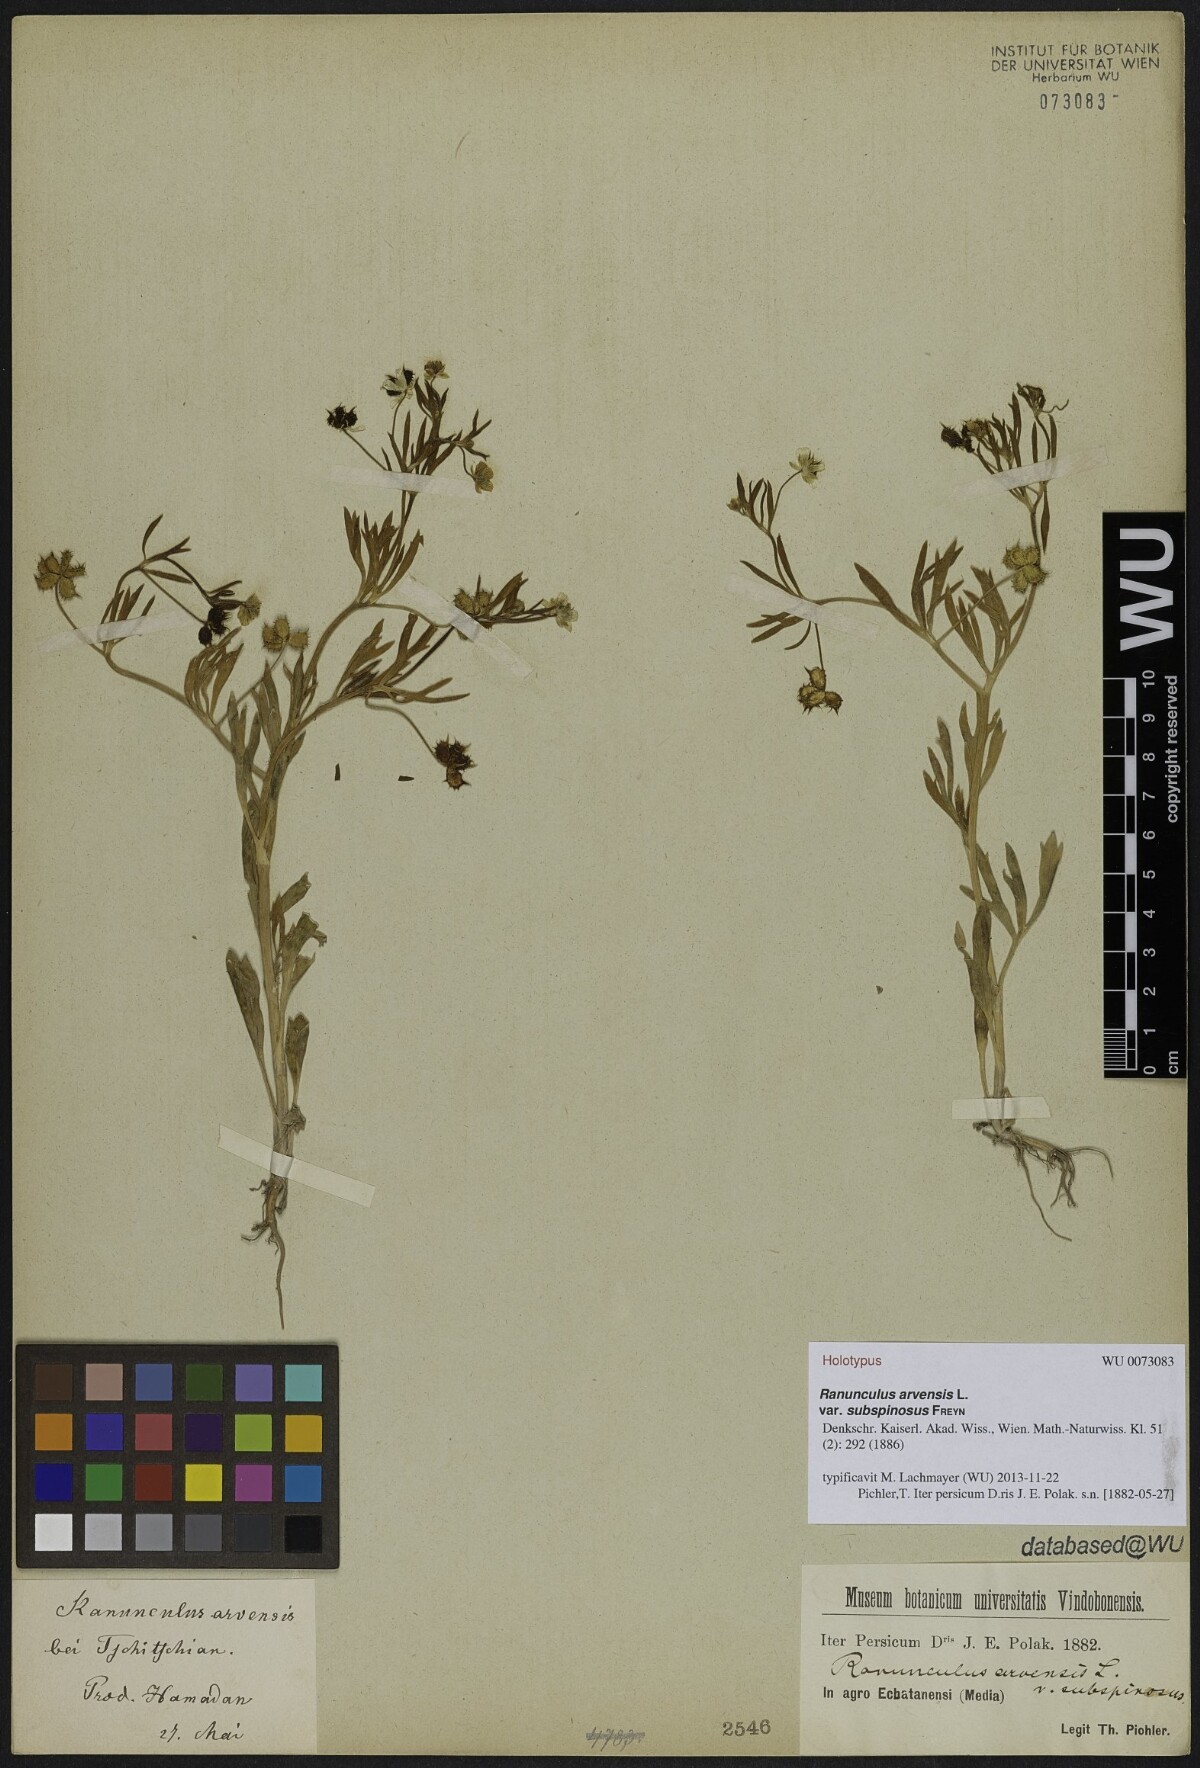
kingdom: Plantae
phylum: Tracheophyta
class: Magnoliopsida
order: Ranunculales
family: Ranunculaceae
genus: Ranunculus
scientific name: Ranunculus arvensis
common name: Corn buttercup
